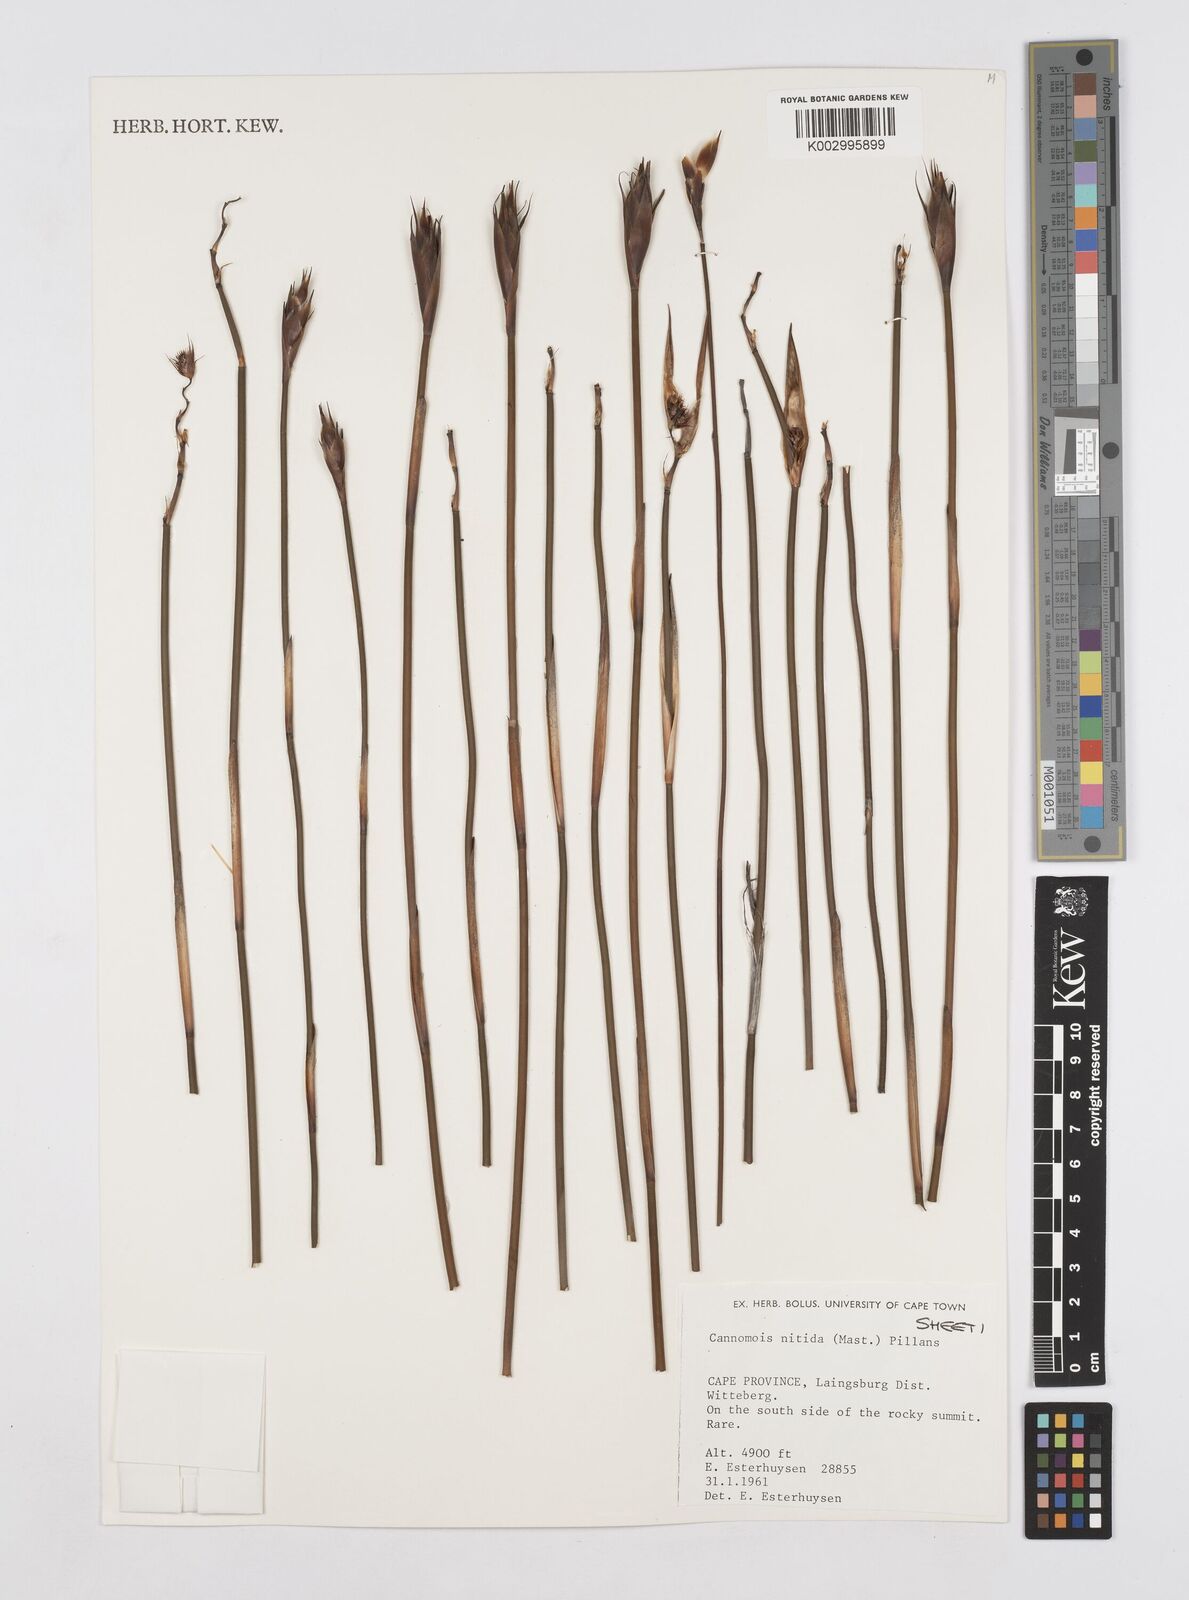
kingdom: Plantae
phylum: Tracheophyta
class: Liliopsida
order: Poales
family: Restionaceae
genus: Cannomois
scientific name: Cannomois nitida
